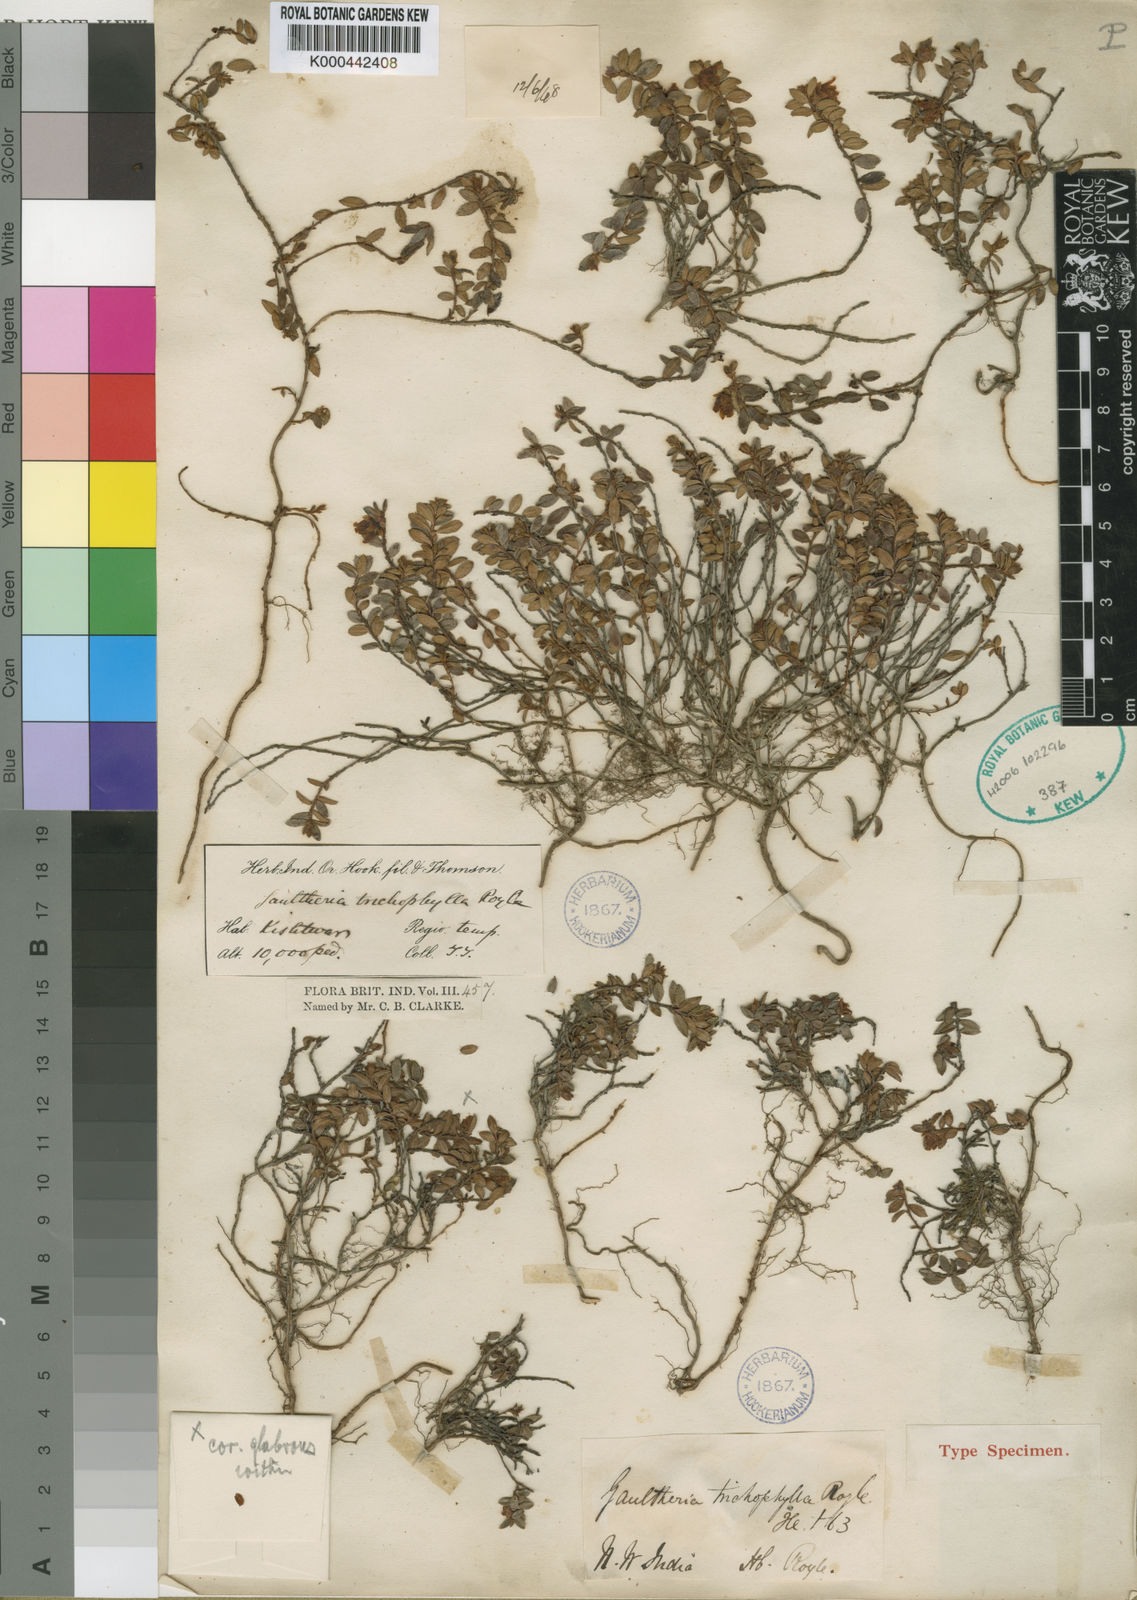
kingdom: Plantae
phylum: Tracheophyta
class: Magnoliopsida
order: Ericales
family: Ericaceae
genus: Gaultheria
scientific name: Gaultheria trichophylla
